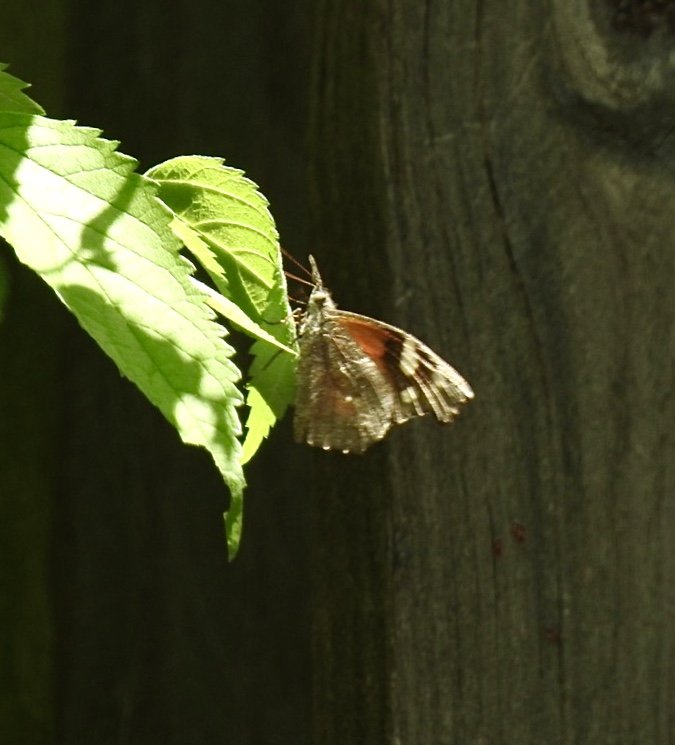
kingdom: Animalia
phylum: Arthropoda
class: Insecta
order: Lepidoptera
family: Nymphalidae
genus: Libytheana
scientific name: Libytheana carinenta
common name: American Snout
